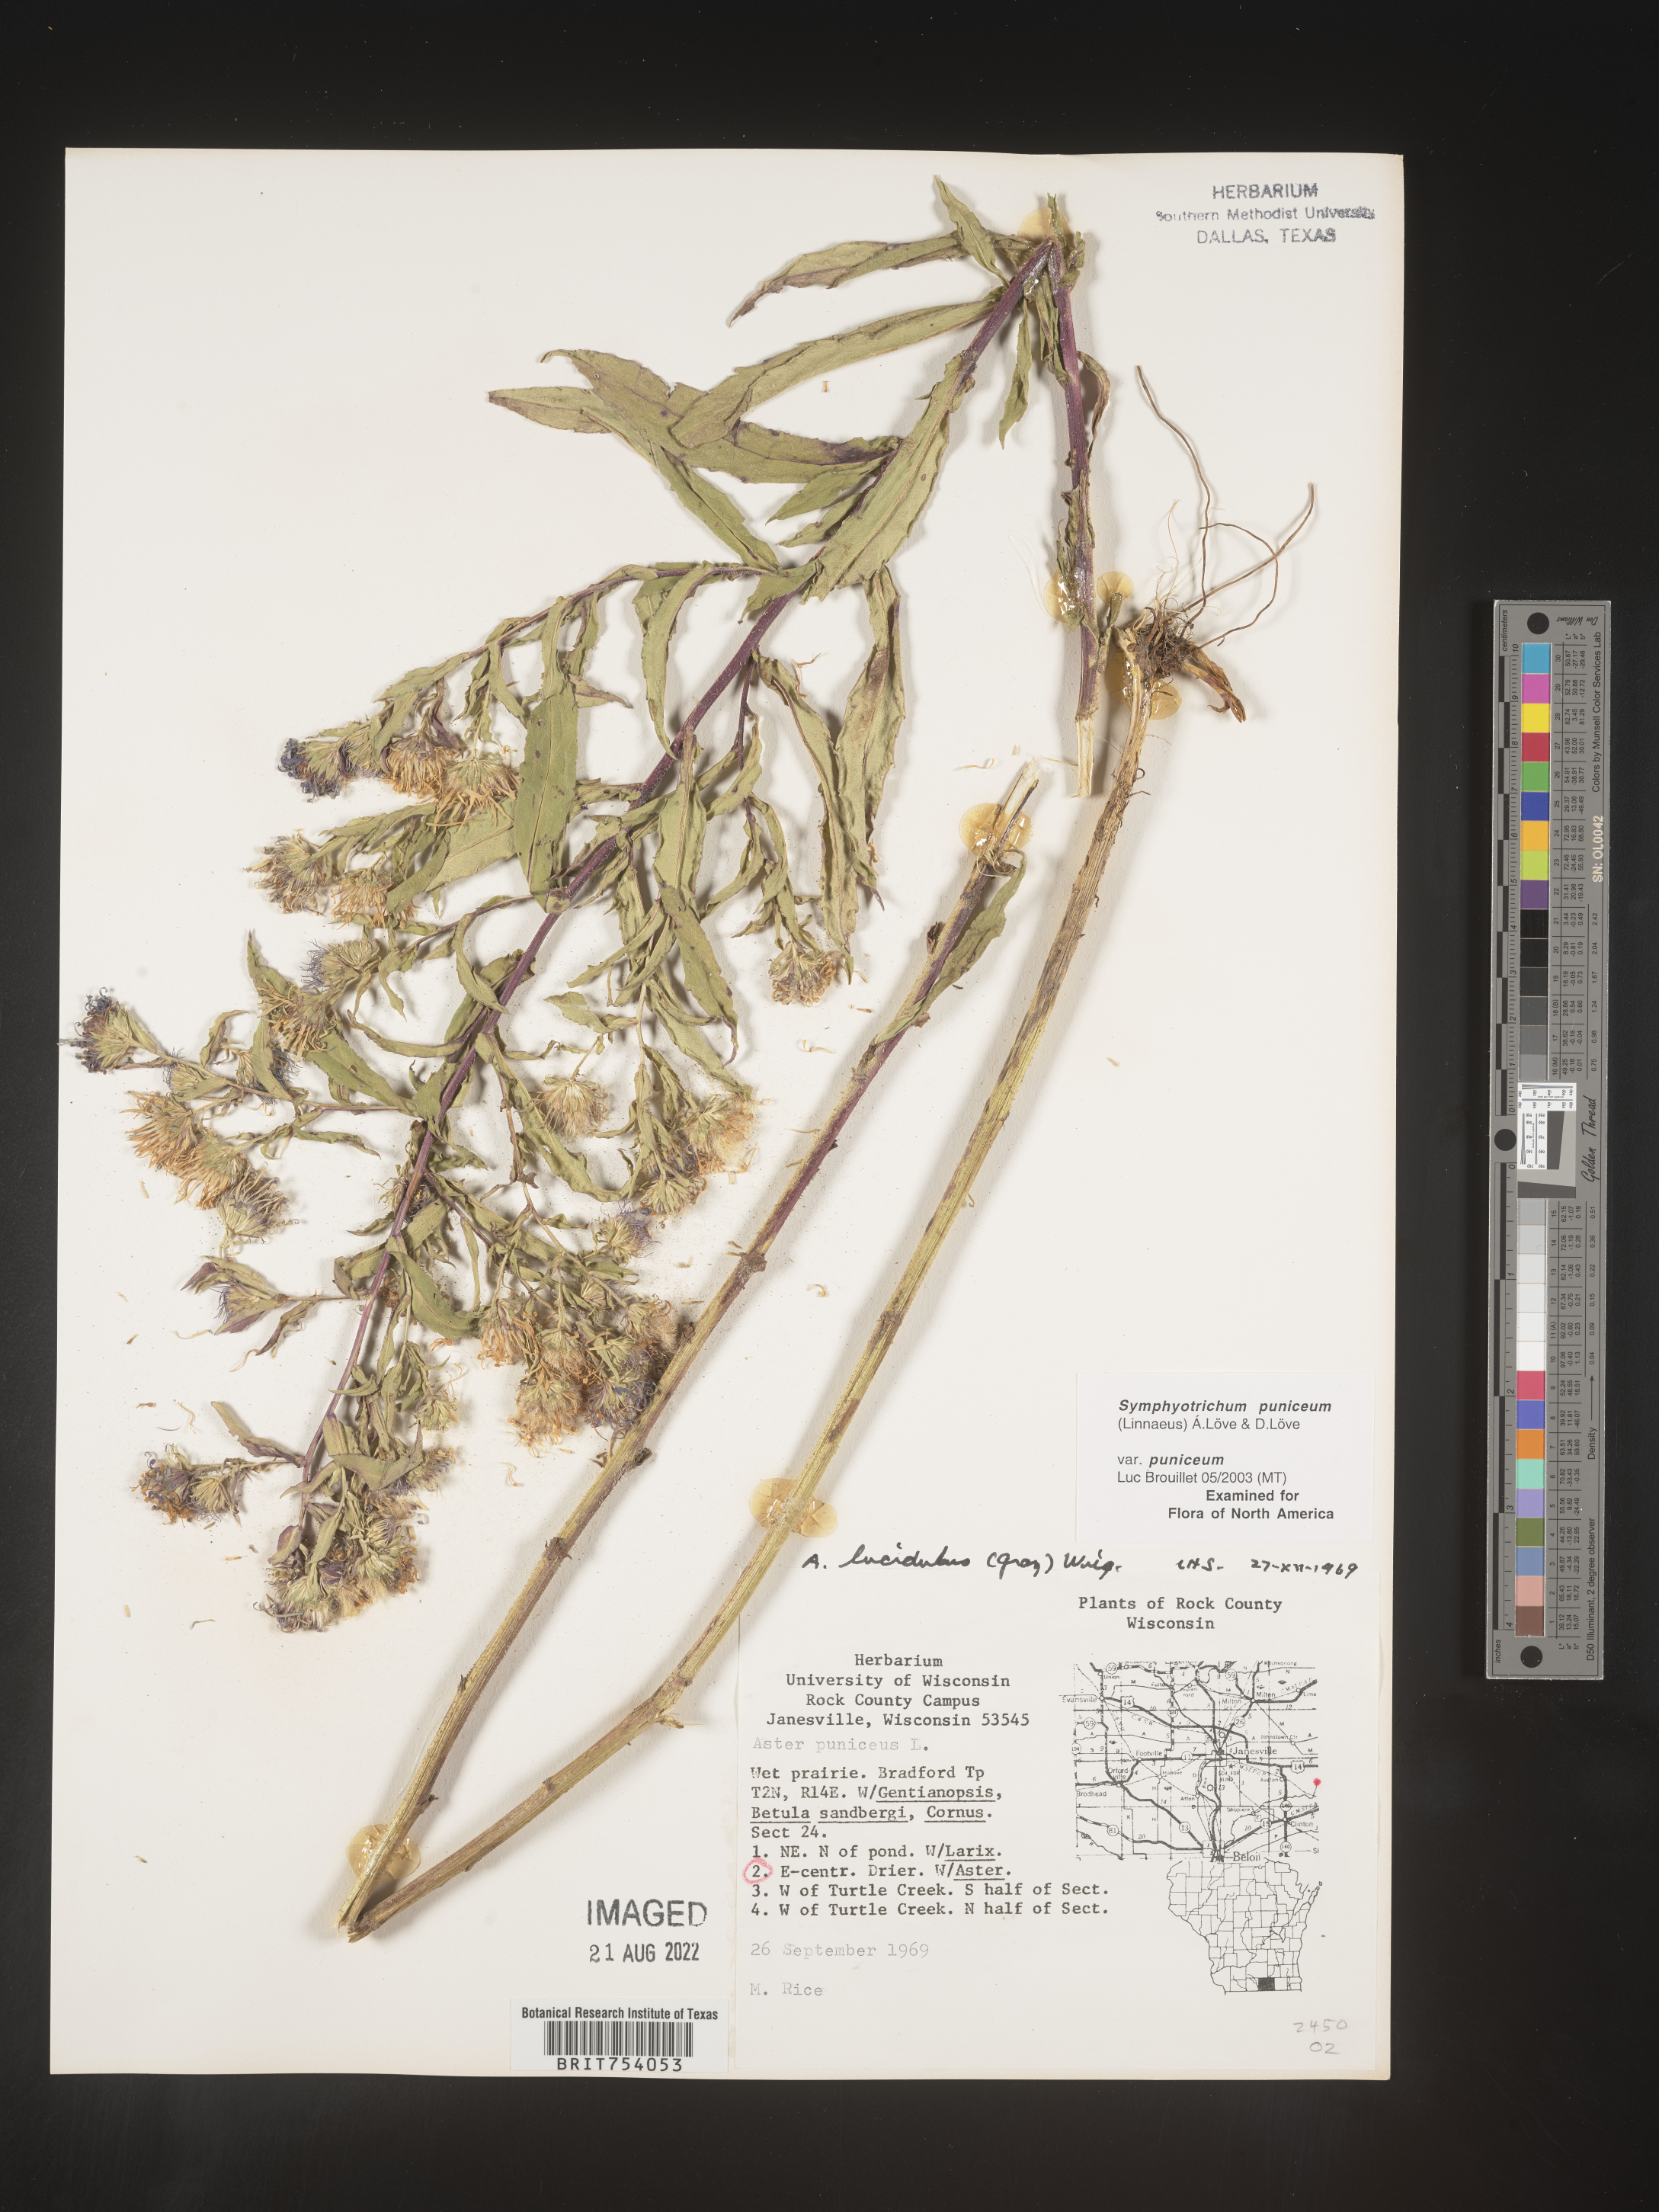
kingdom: Plantae
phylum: Tracheophyta
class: Magnoliopsida
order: Asterales
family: Asteraceae
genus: Symphyotrichum
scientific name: Symphyotrichum puniceum
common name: Bog aster
